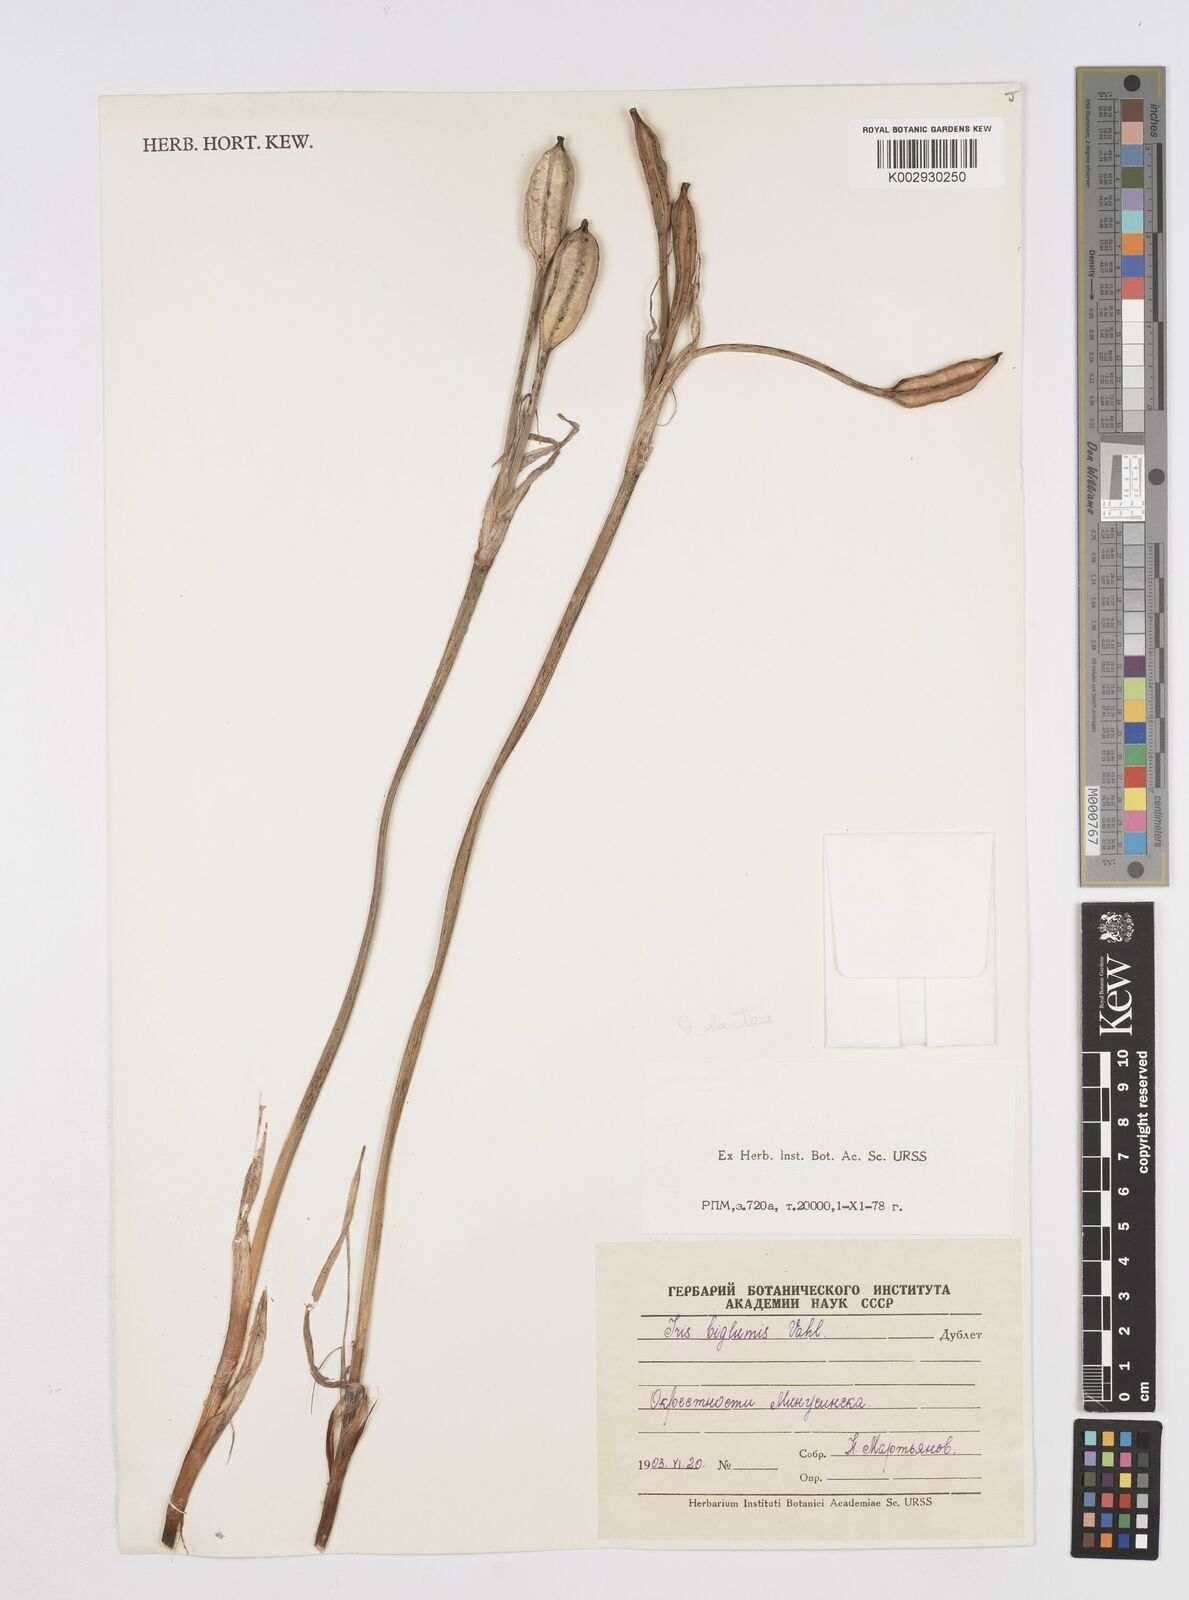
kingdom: Plantae
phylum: Tracheophyta
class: Liliopsida
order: Asparagales
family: Iridaceae
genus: Iris
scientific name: Iris lactea
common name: White-flower chinese iris
